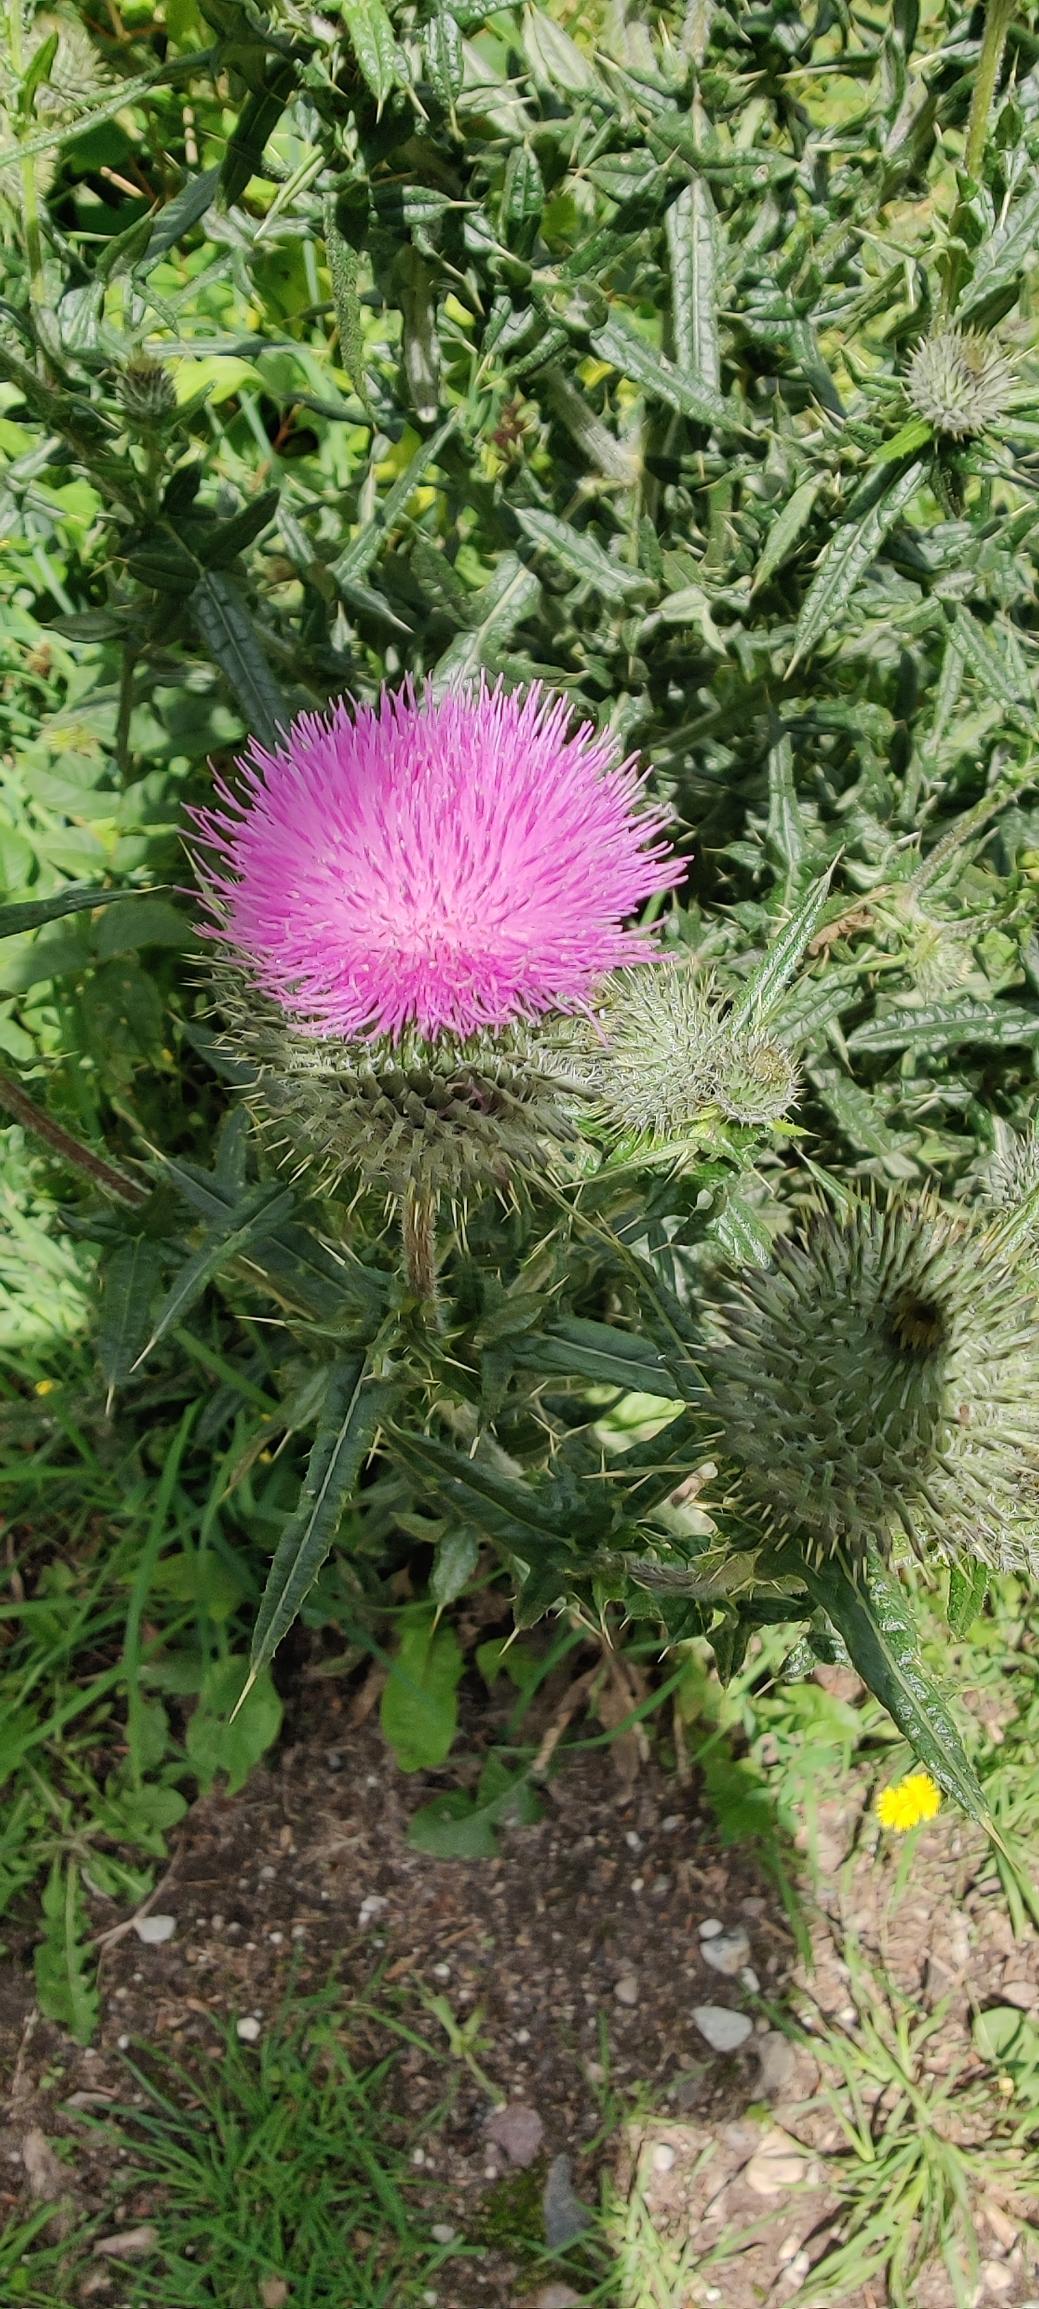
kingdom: Plantae
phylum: Tracheophyta
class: Magnoliopsida
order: Asterales
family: Asteraceae
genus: Cirsium
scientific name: Cirsium vulgare
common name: Horse-tidsel
